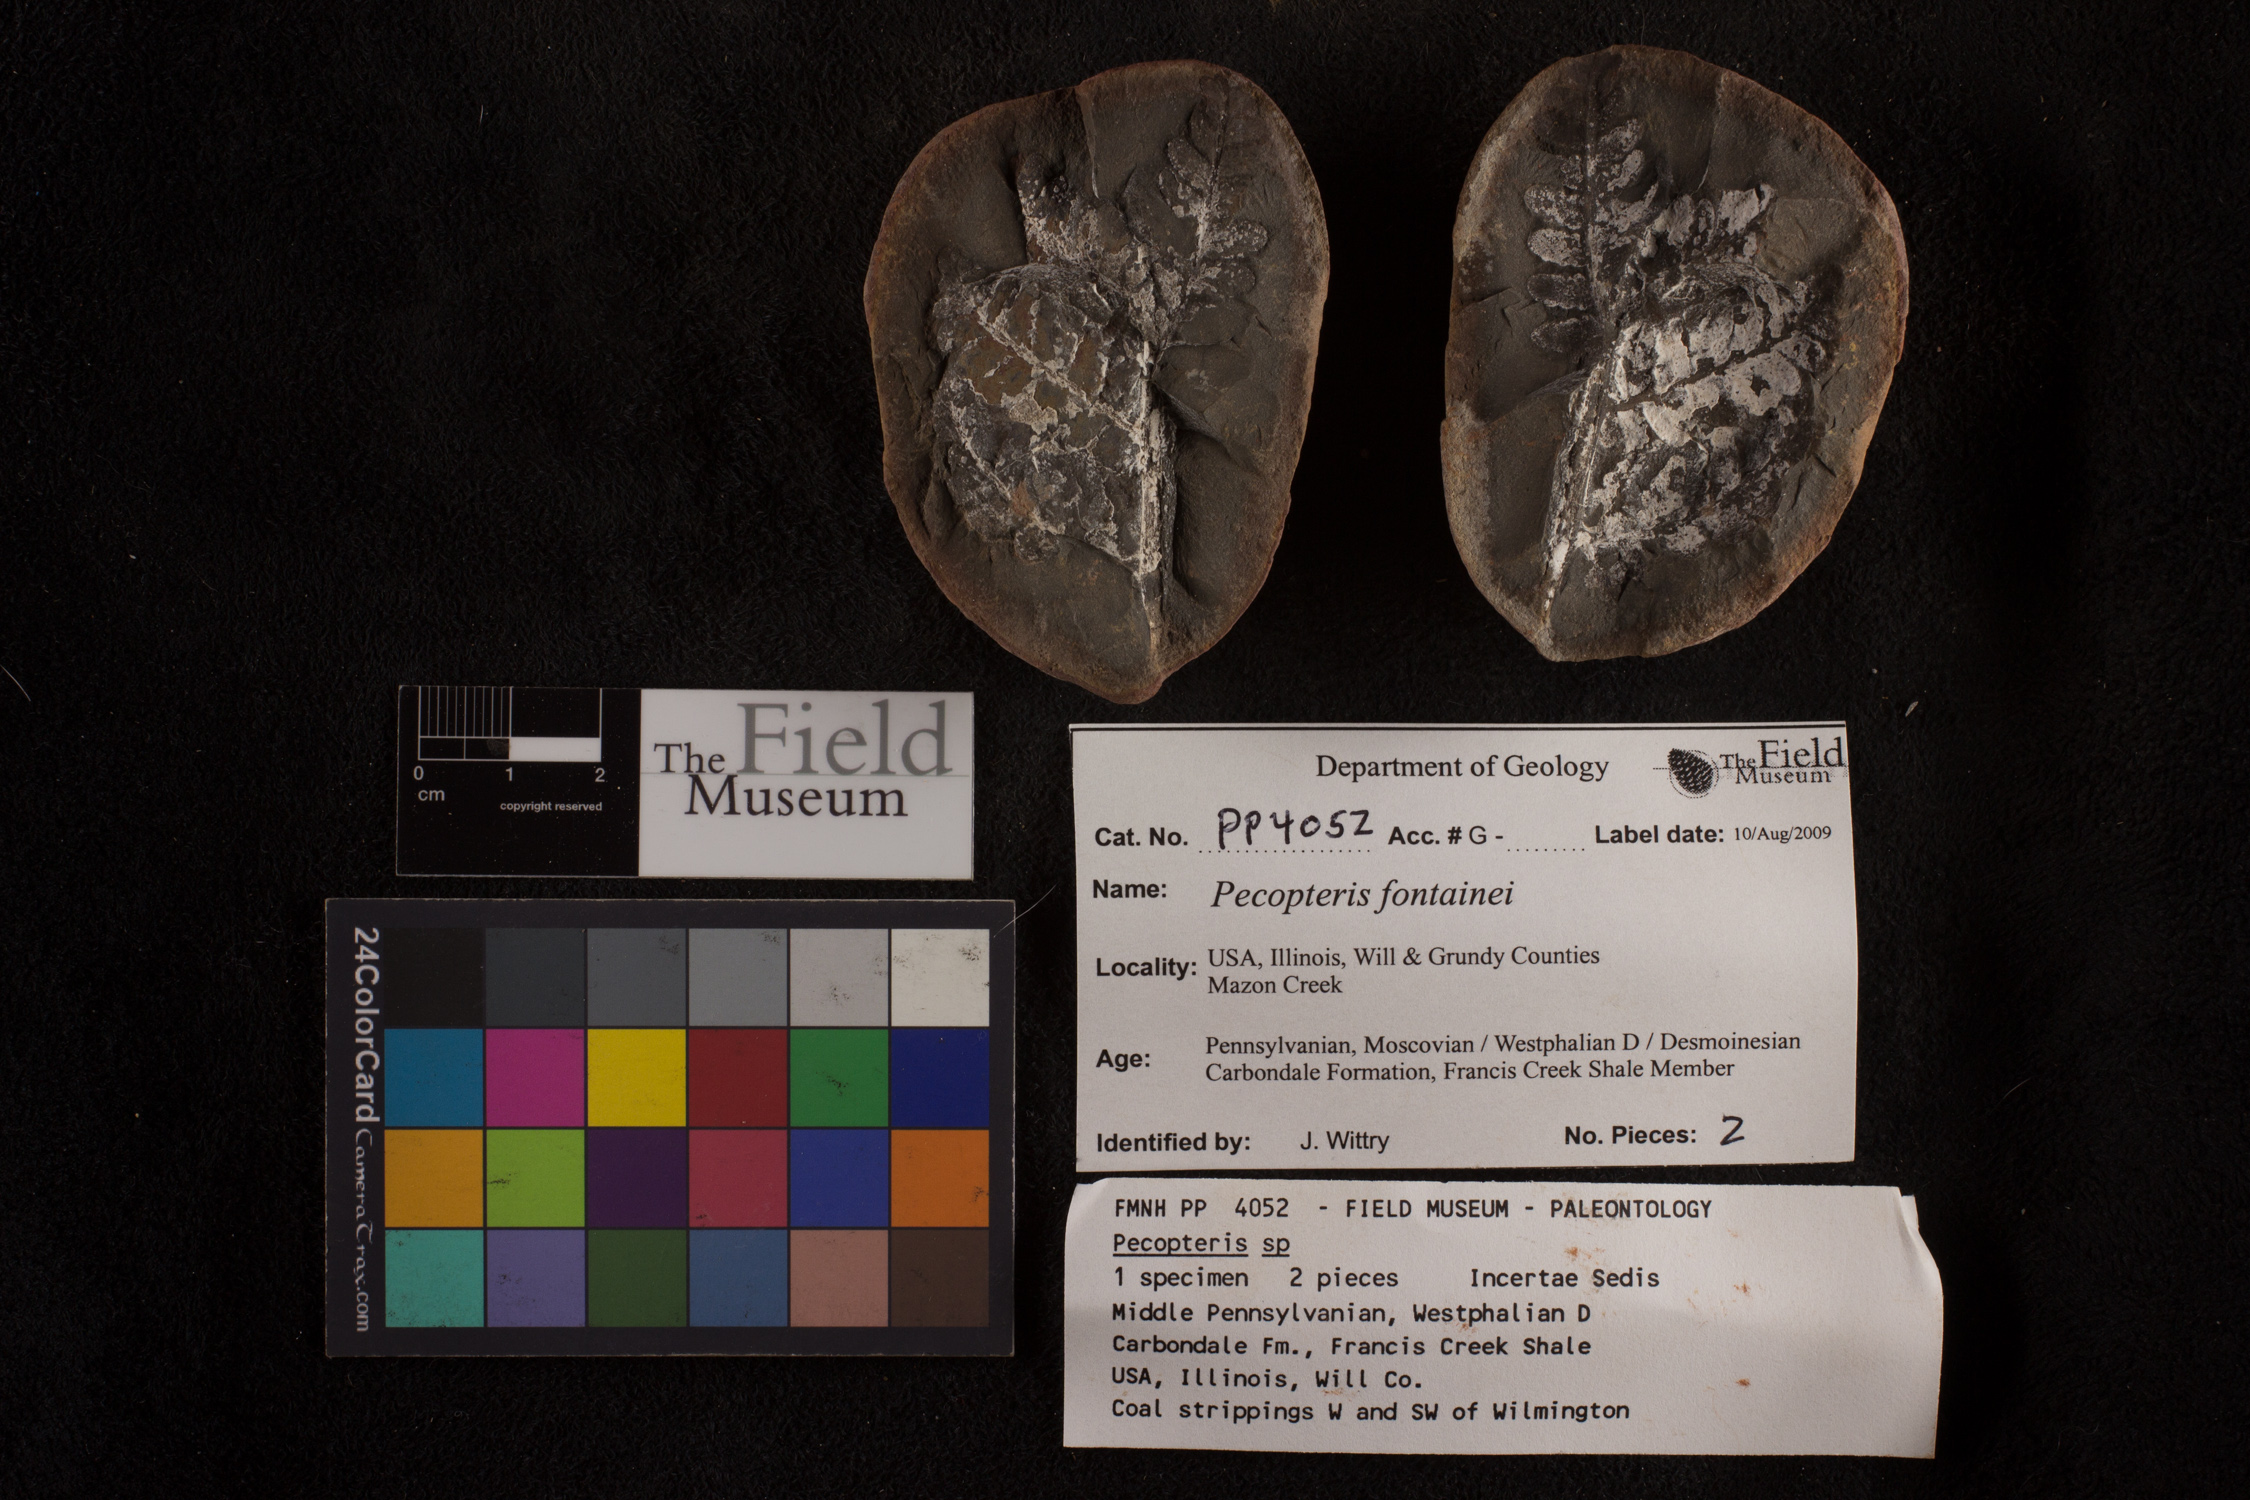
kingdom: Plantae
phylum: Tracheophyta
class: Polypodiopsida
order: Marattiales
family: Asterothecaceae
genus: Pecopteris
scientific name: Pecopteris
